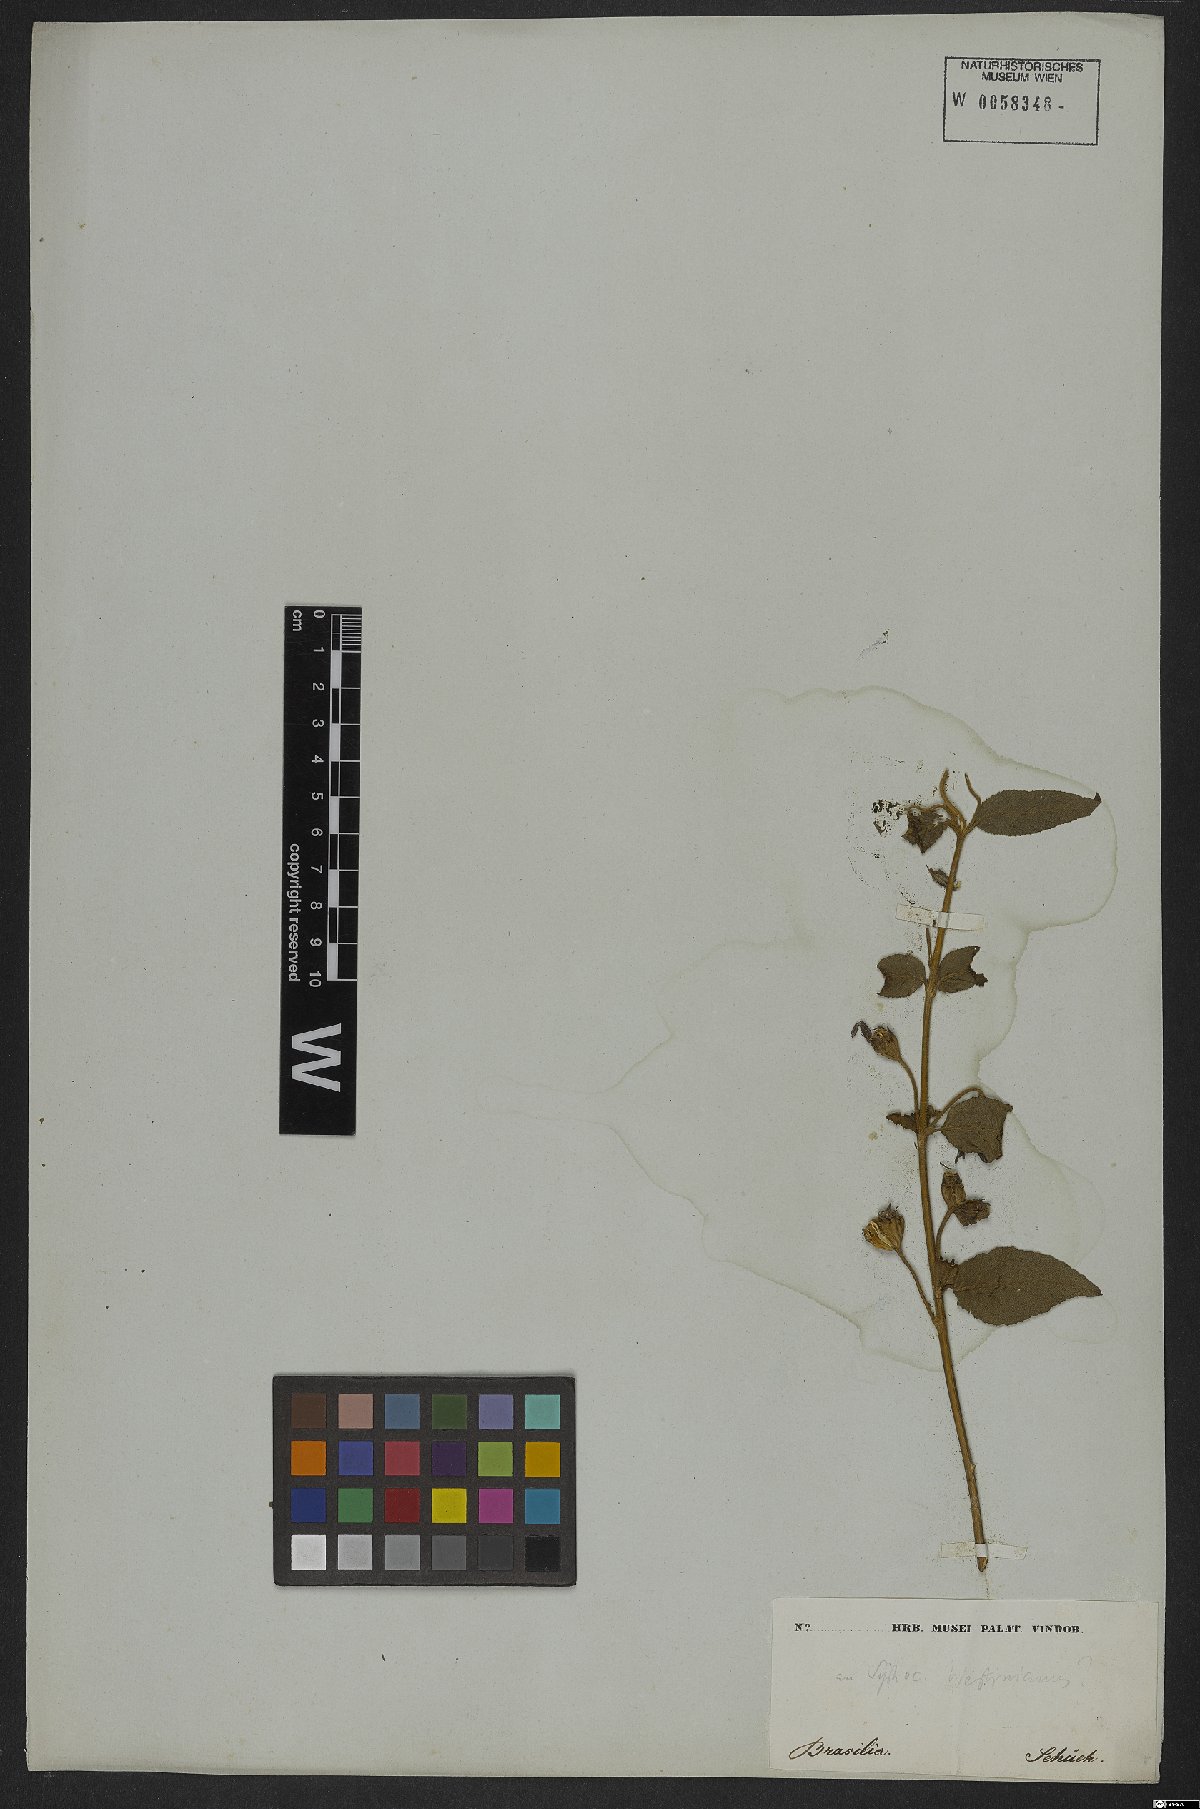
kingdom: Plantae
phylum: Tracheophyta
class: Magnoliopsida
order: Asterales
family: Campanulaceae
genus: Siphocampylus
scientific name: Siphocampylus westinianus
